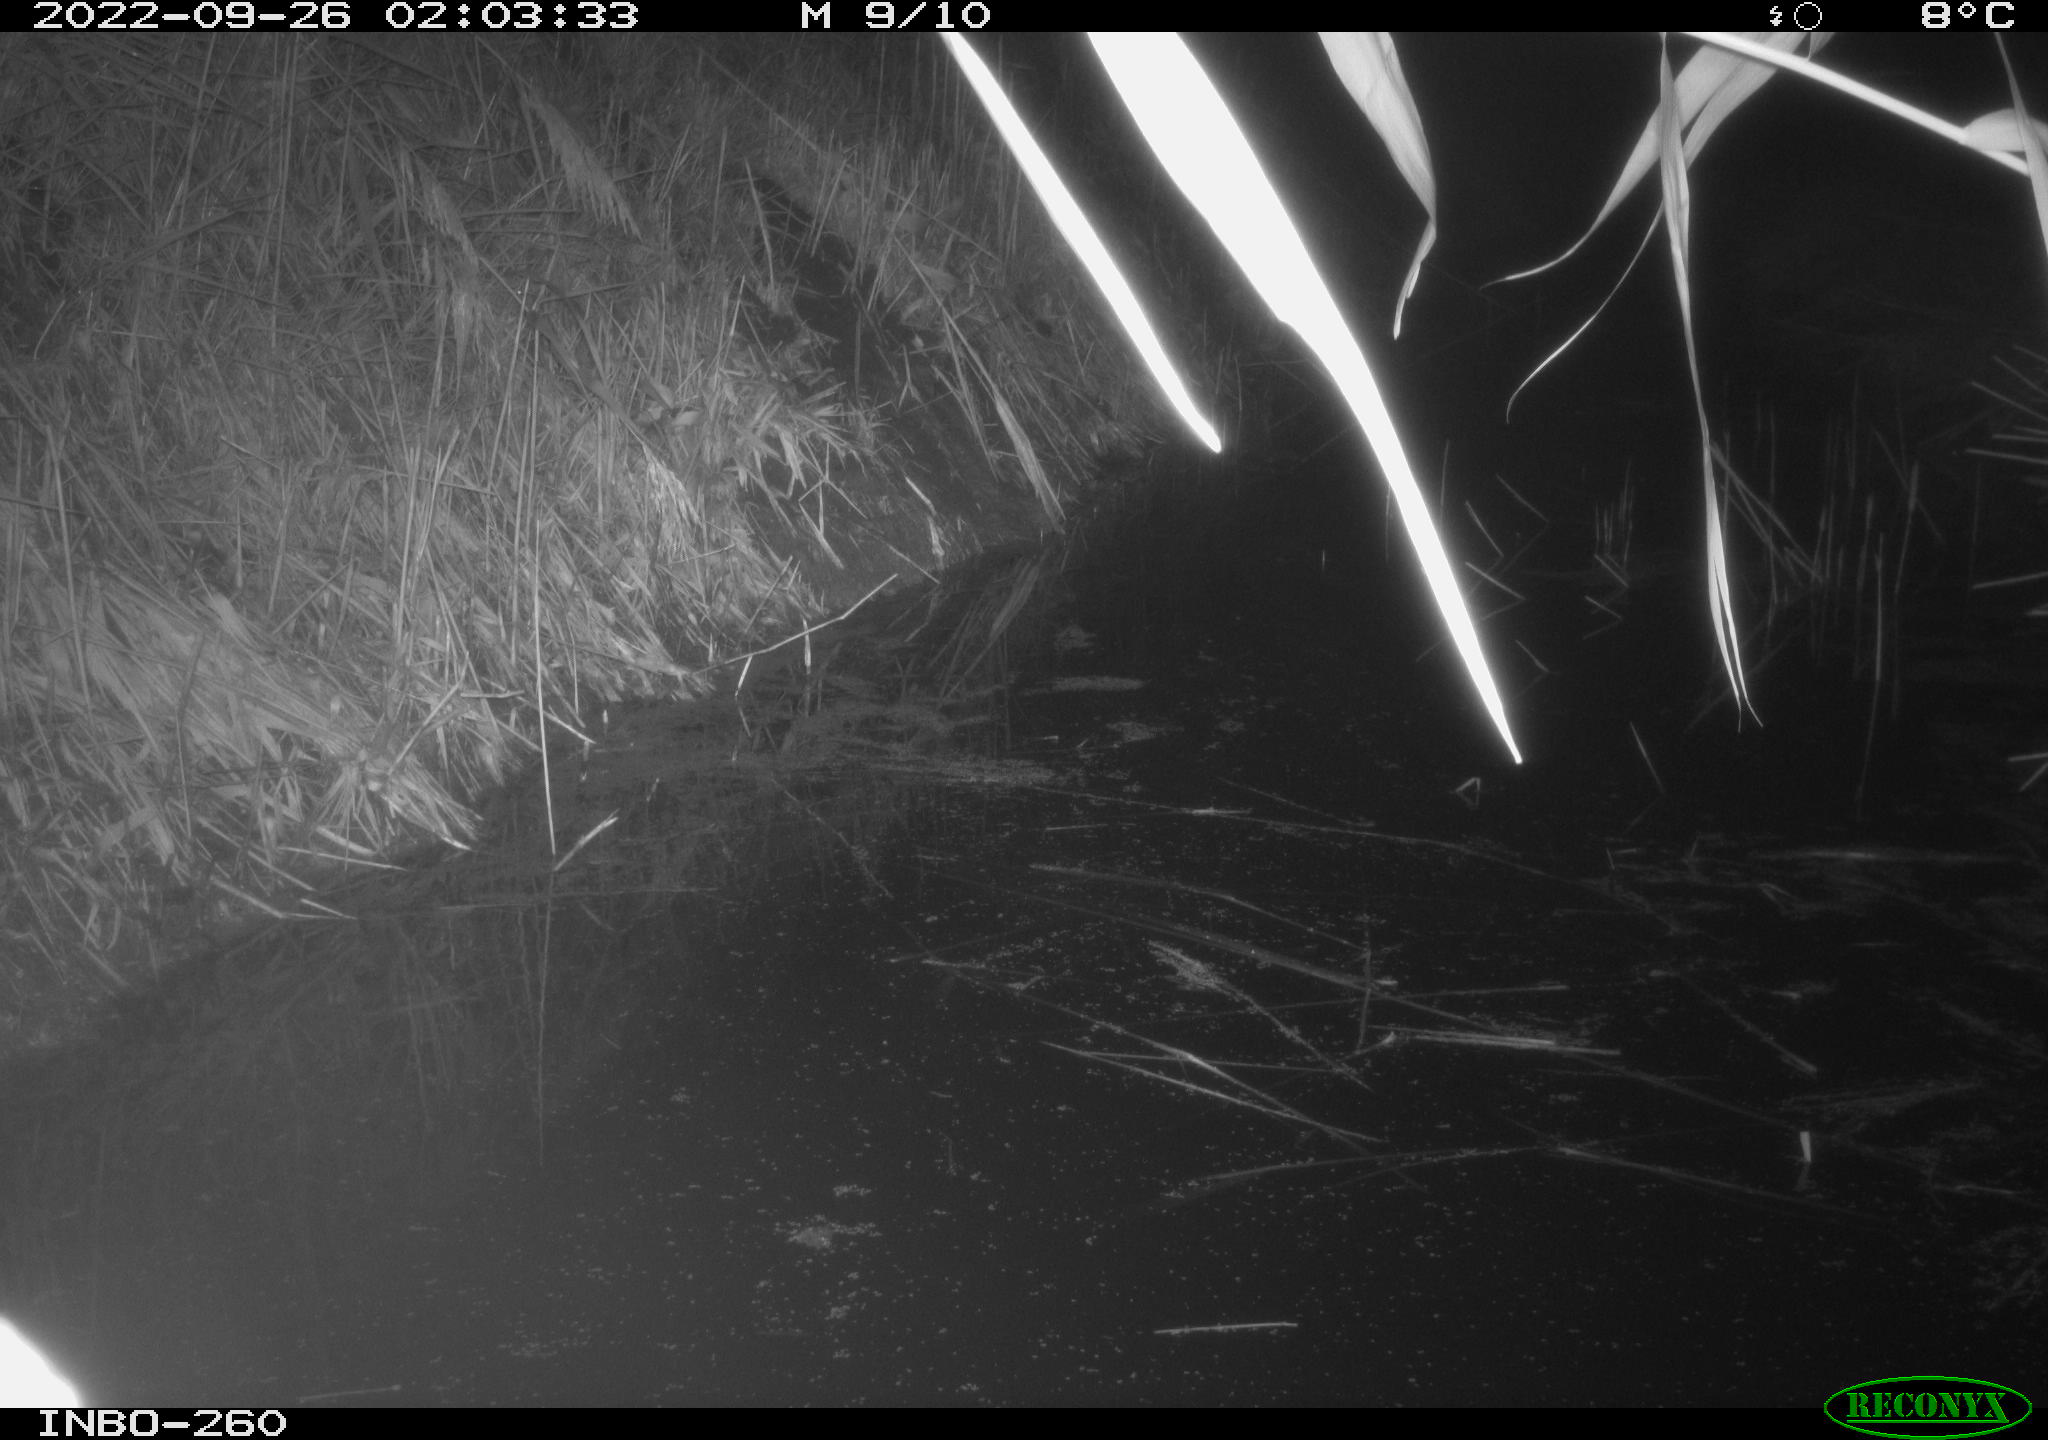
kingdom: Animalia
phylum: Chordata
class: Mammalia
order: Rodentia
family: Muridae
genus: Rattus
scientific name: Rattus norvegicus
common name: Brown rat
